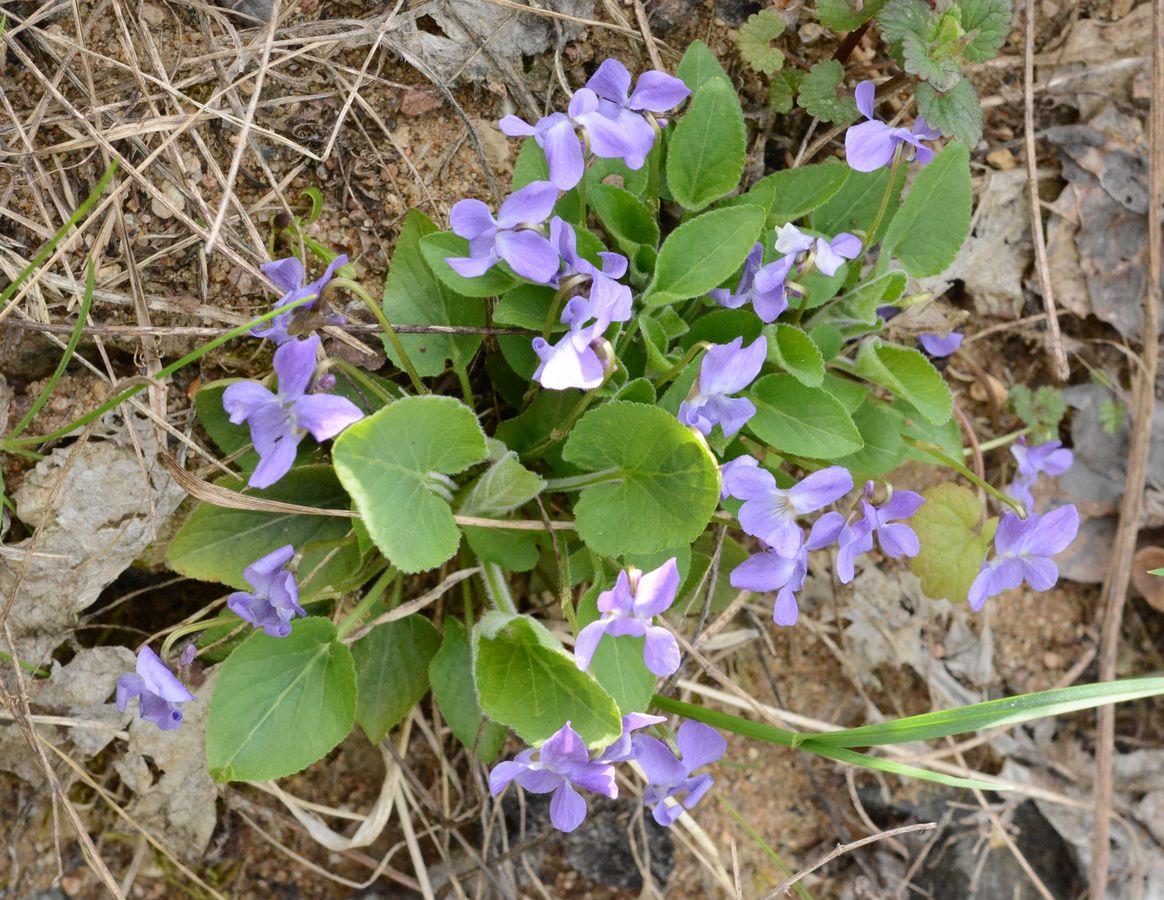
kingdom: Plantae
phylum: Tracheophyta
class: Magnoliopsida
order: Malpighiales
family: Violaceae
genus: Viola
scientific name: Viola collina
